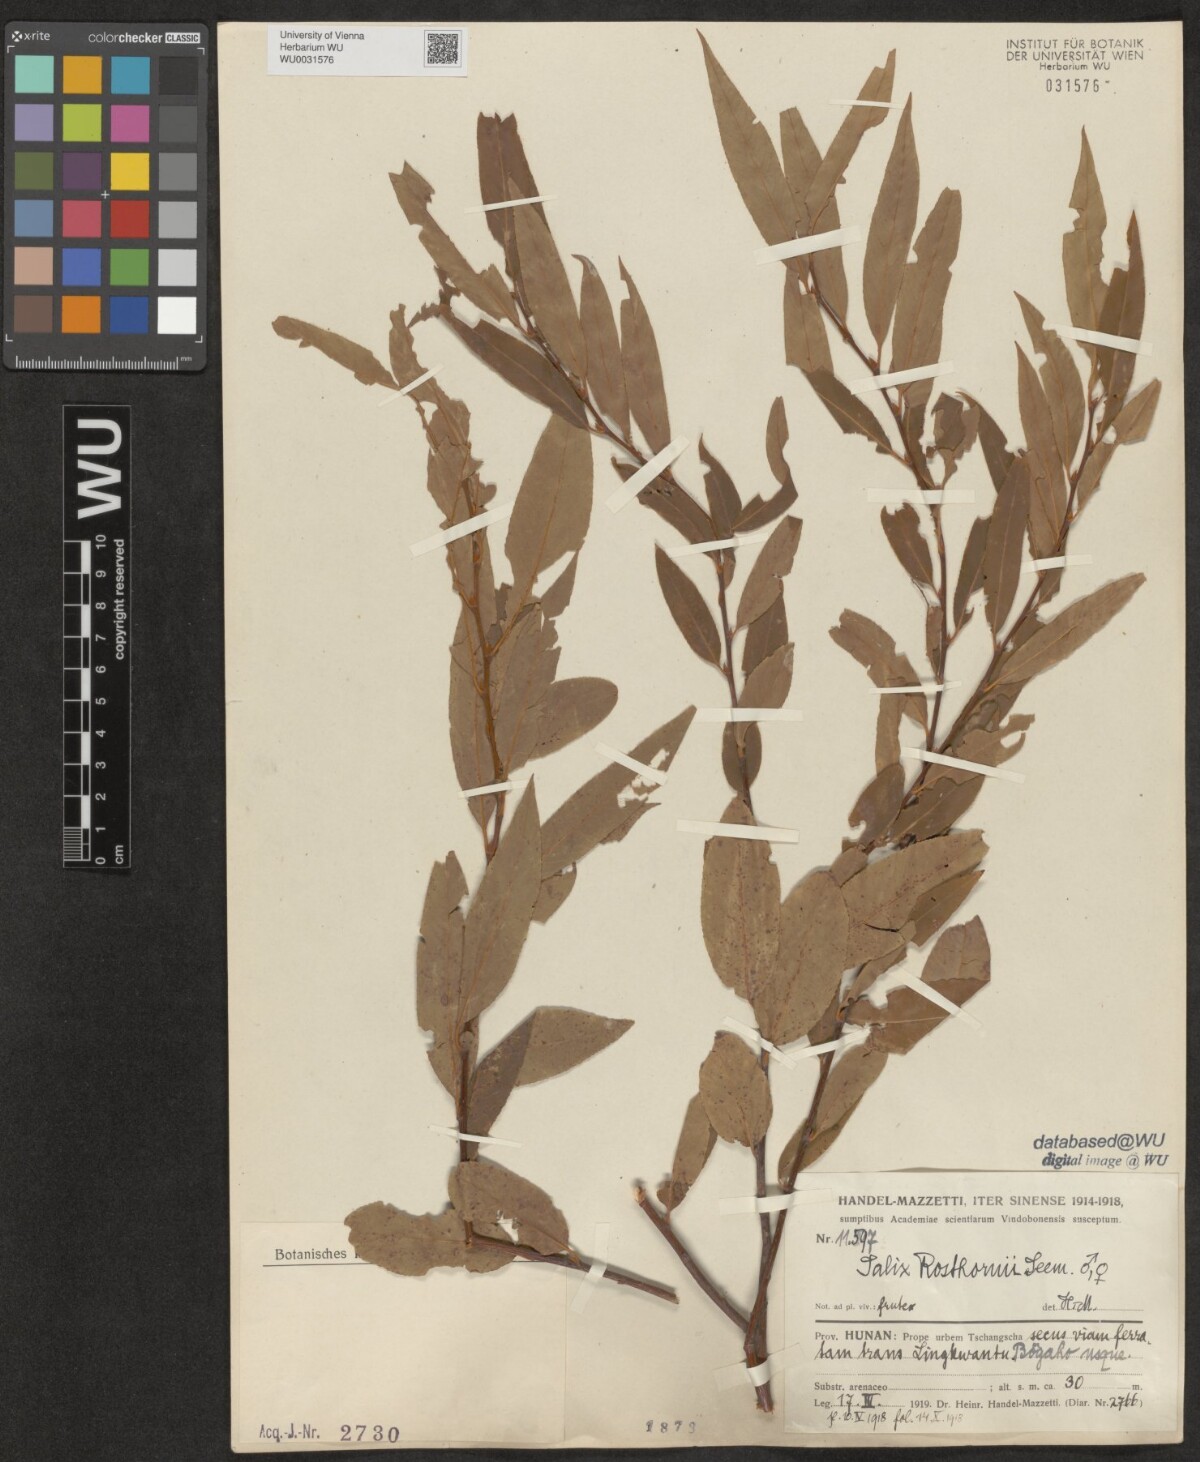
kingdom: Plantae
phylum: Tracheophyta
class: Magnoliopsida
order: Malpighiales
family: Salicaceae
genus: Salix
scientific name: Salix rosthornii
